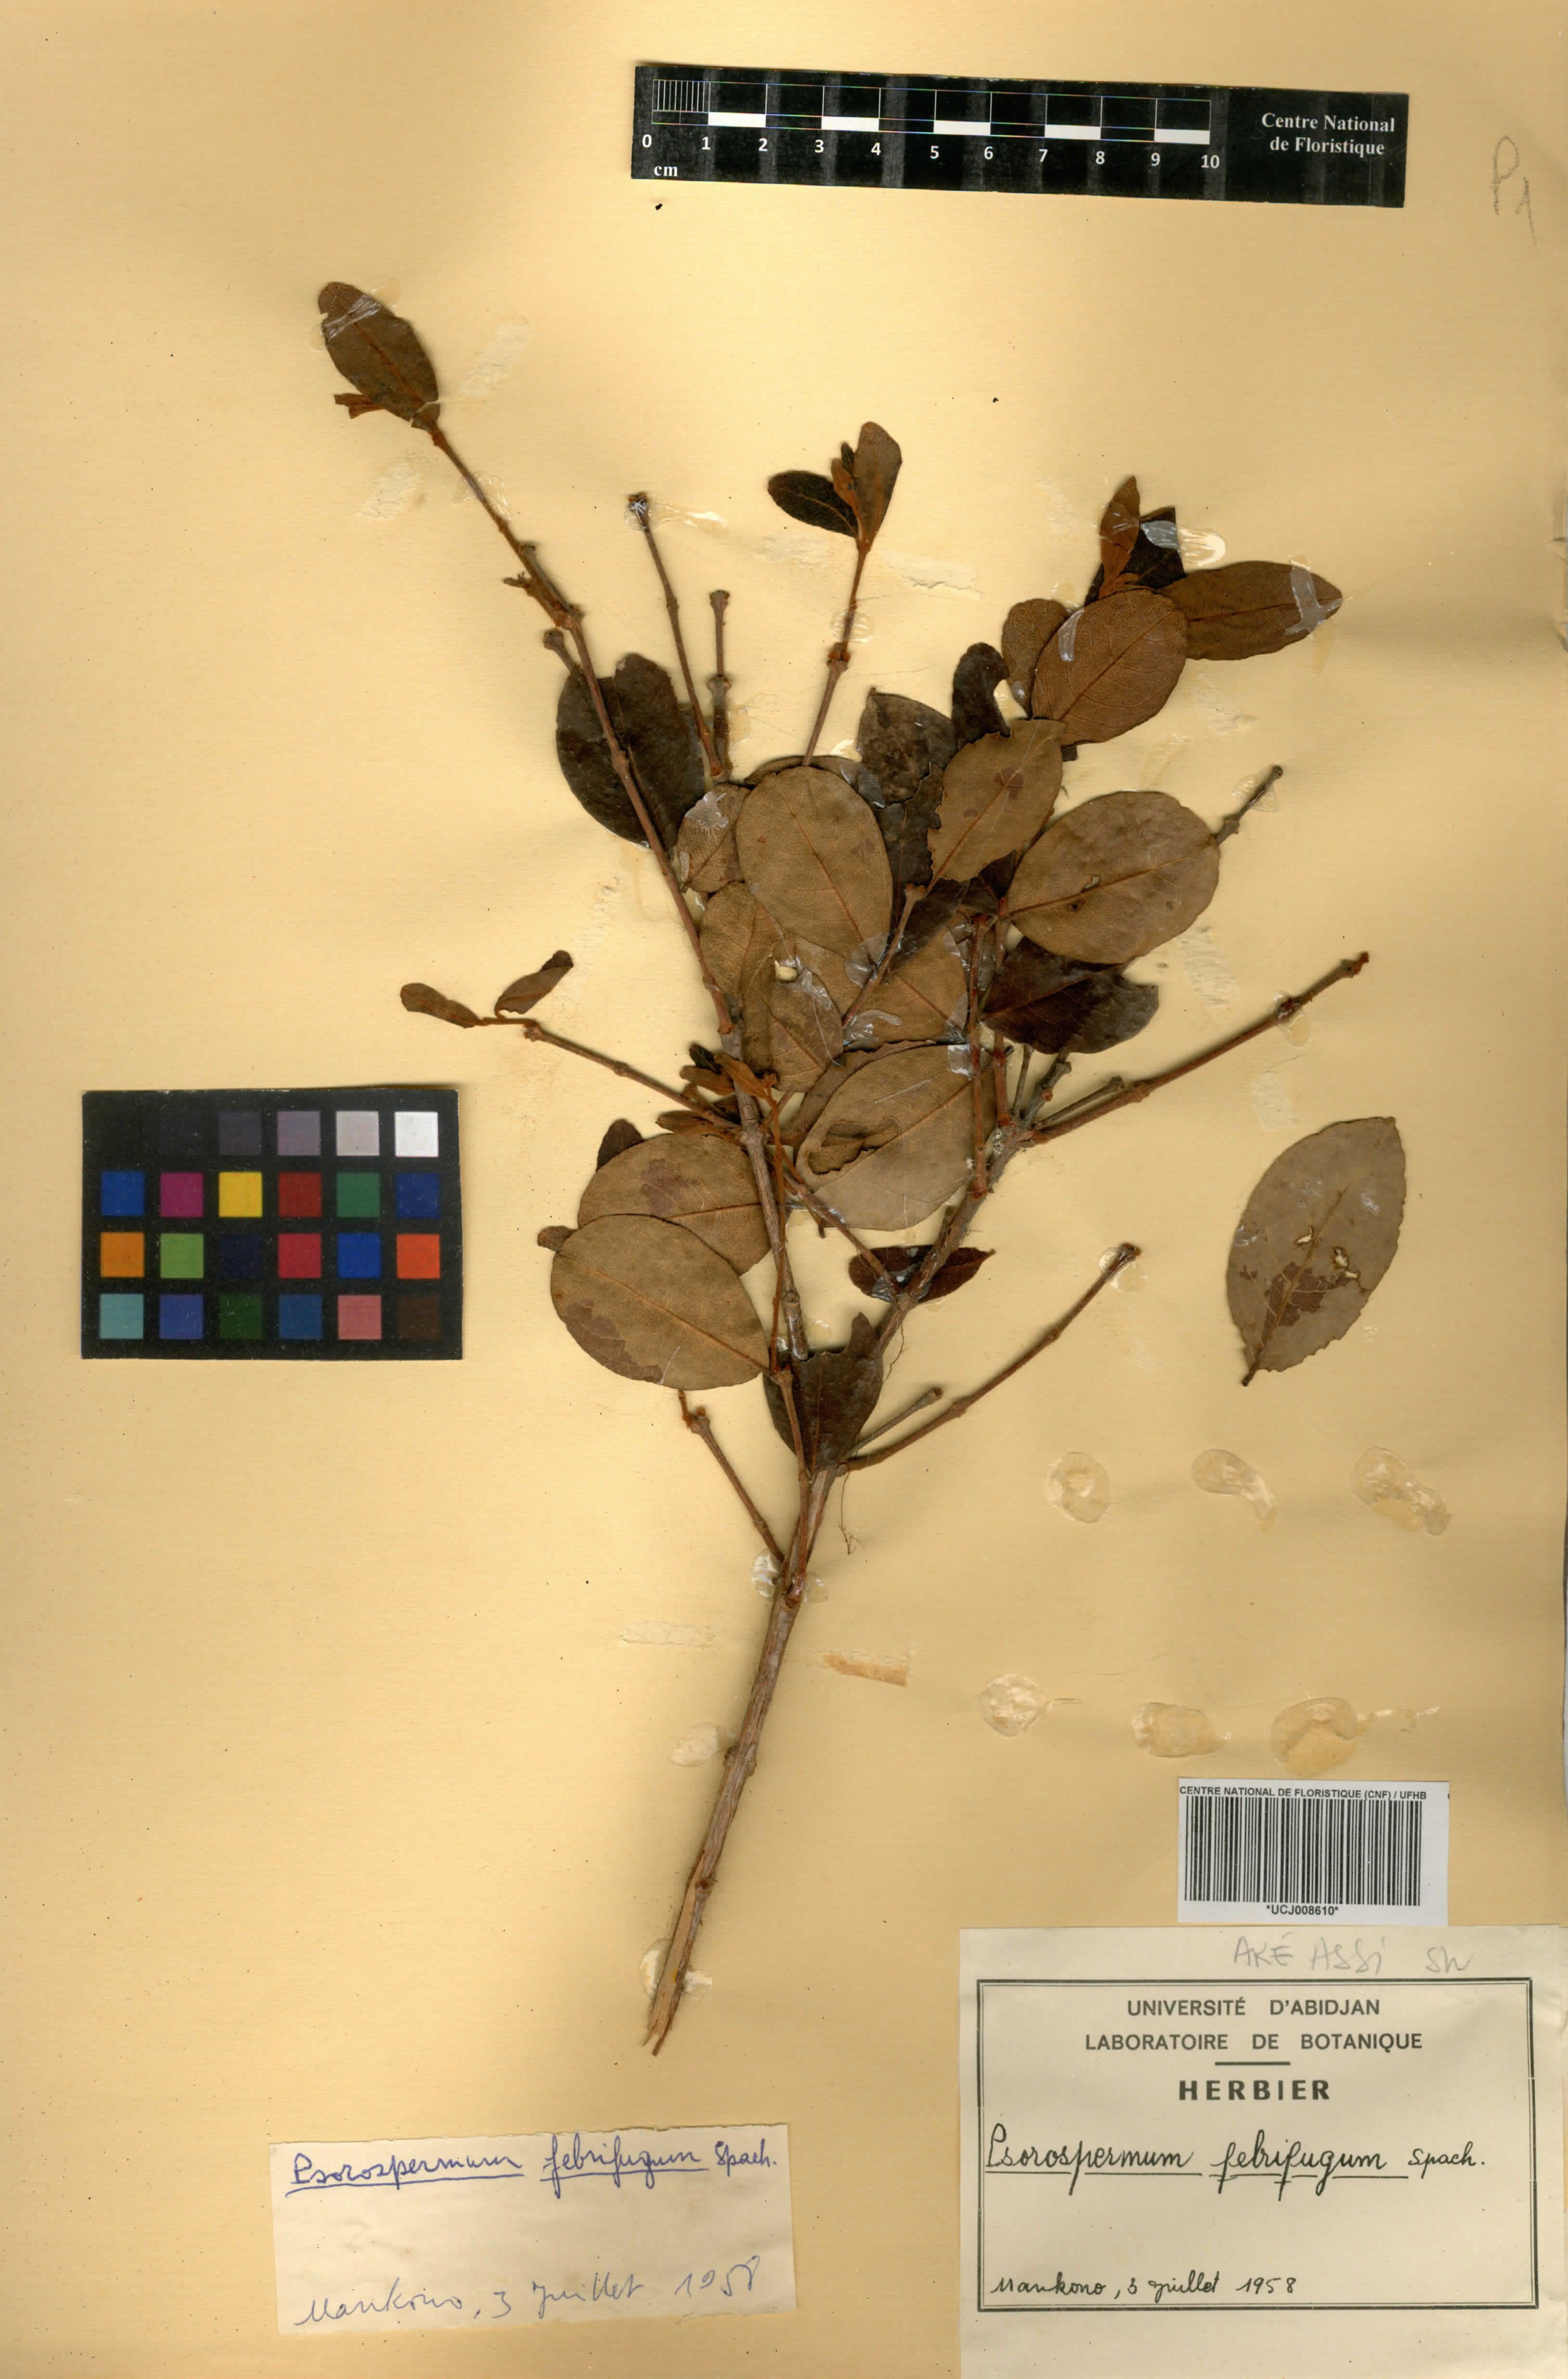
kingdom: Plantae
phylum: Tracheophyta
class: Magnoliopsida
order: Malpighiales
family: Hypericaceae
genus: Psorospermum
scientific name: Psorospermum febrifugum
